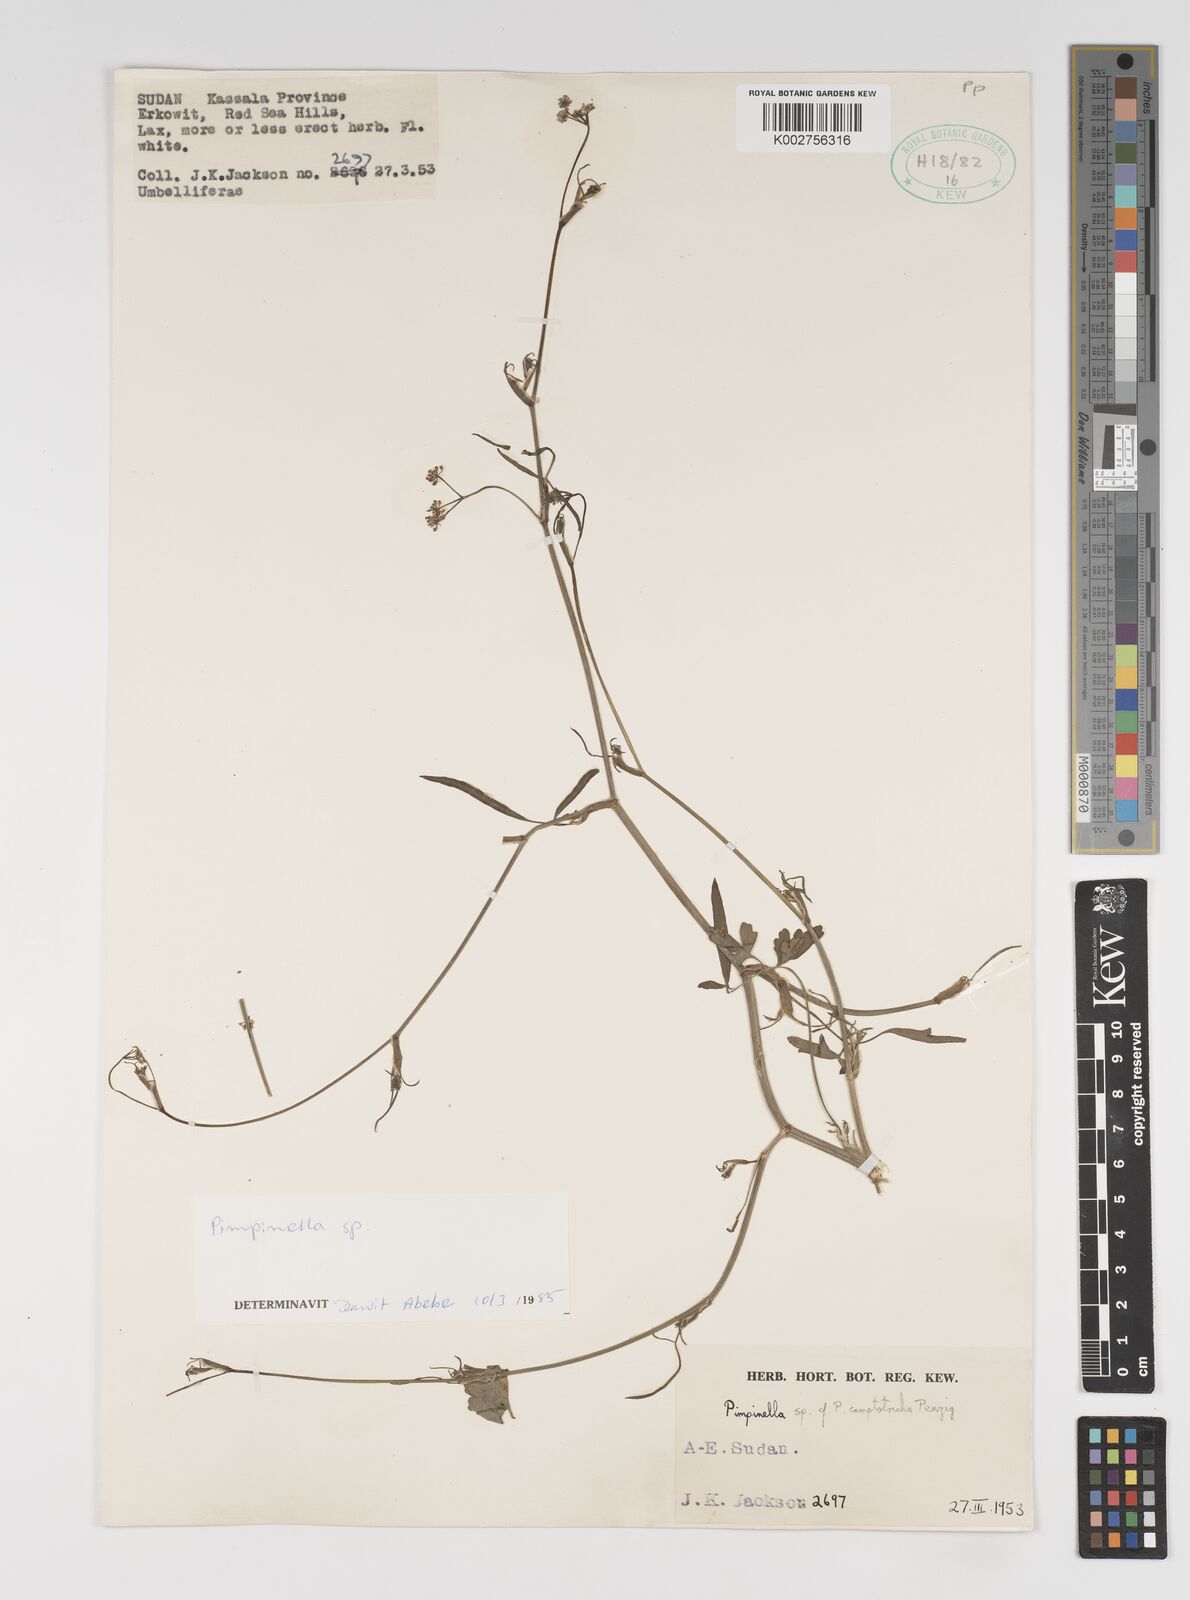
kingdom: Plantae
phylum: Tracheophyta
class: Magnoliopsida
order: Apiales
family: Apiaceae
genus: Pimpinella
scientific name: Pimpinella
